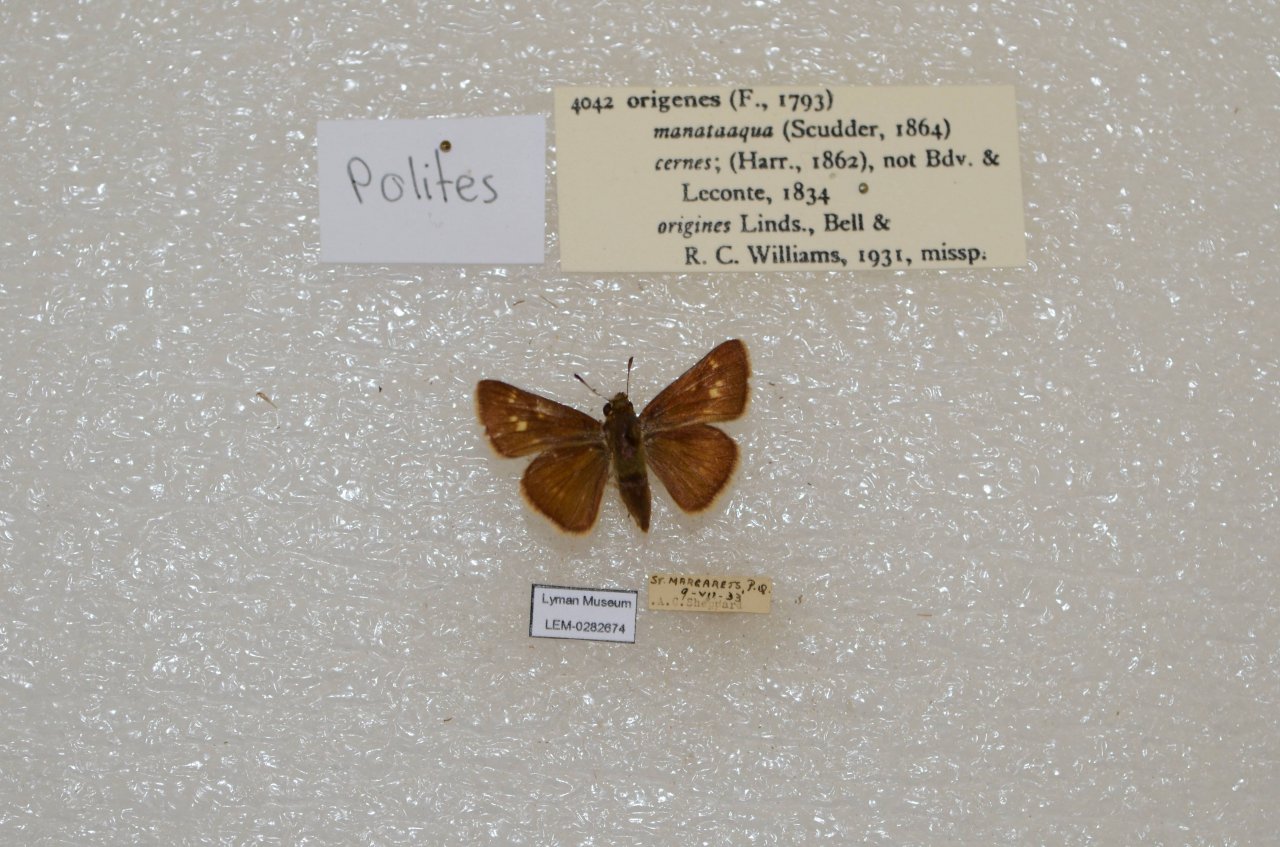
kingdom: Animalia
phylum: Arthropoda
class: Insecta
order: Lepidoptera
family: Hesperiidae
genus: Polites
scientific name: Polites
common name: Crossline Skipper
